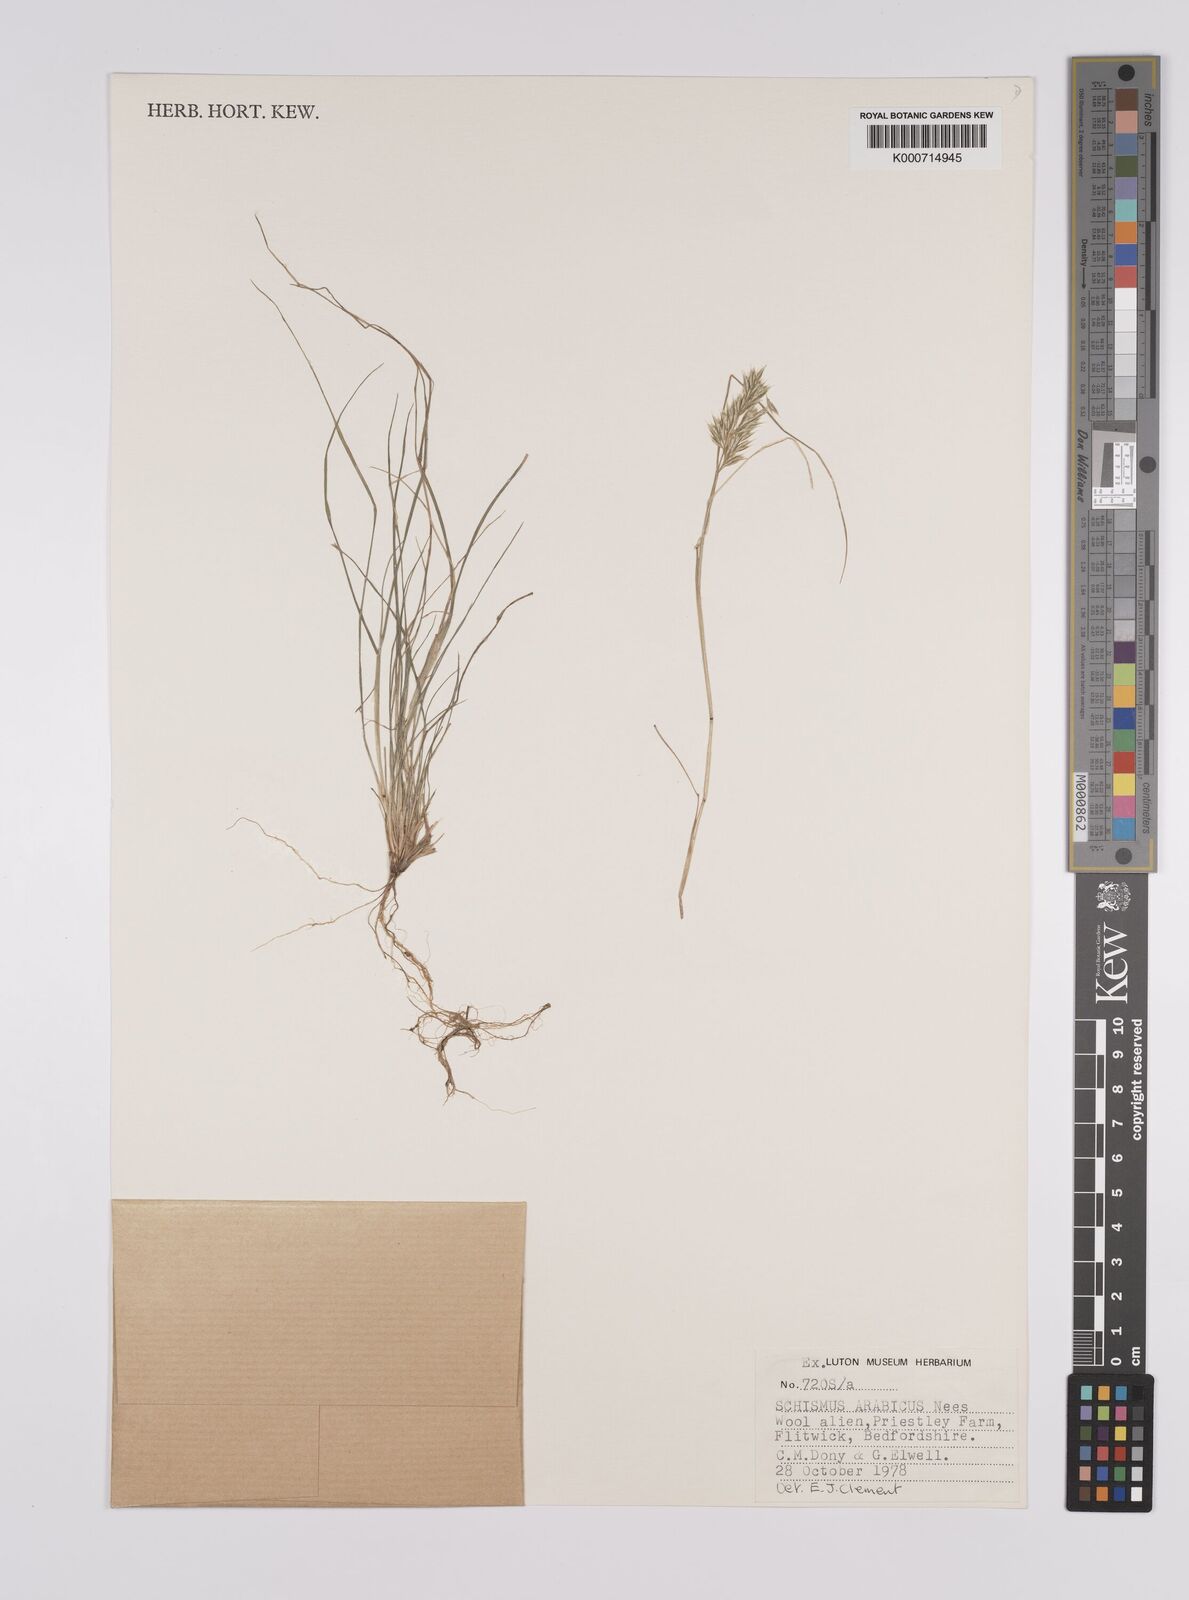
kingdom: Plantae
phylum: Tracheophyta
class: Liliopsida
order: Poales
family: Poaceae
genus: Schismus
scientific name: Schismus arabicus
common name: Arabian schismus
